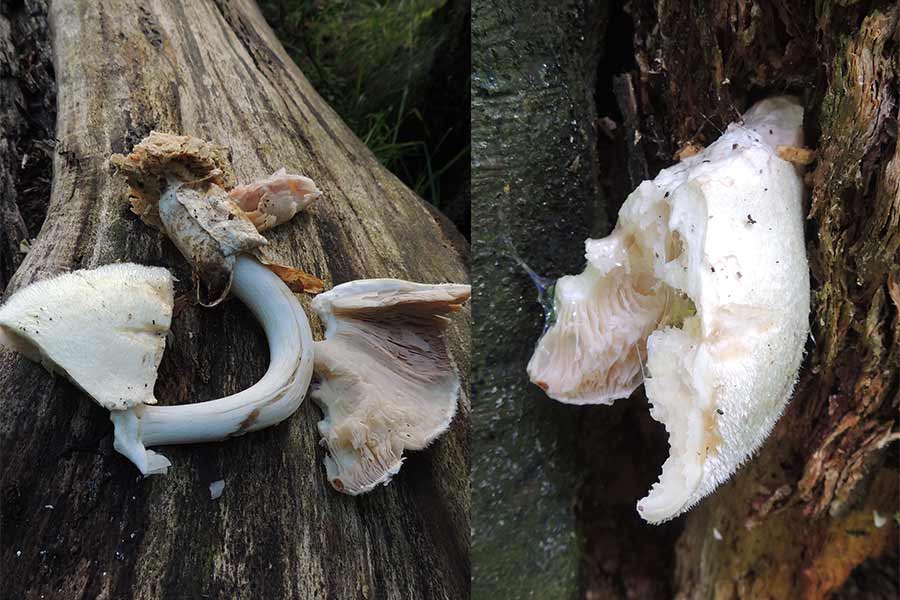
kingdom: Fungi
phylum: Basidiomycota
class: Agaricomycetes
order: Agaricales
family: Pluteaceae
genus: Volvariella
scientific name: Volvariella bombycina
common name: silkehåret posesvamp
